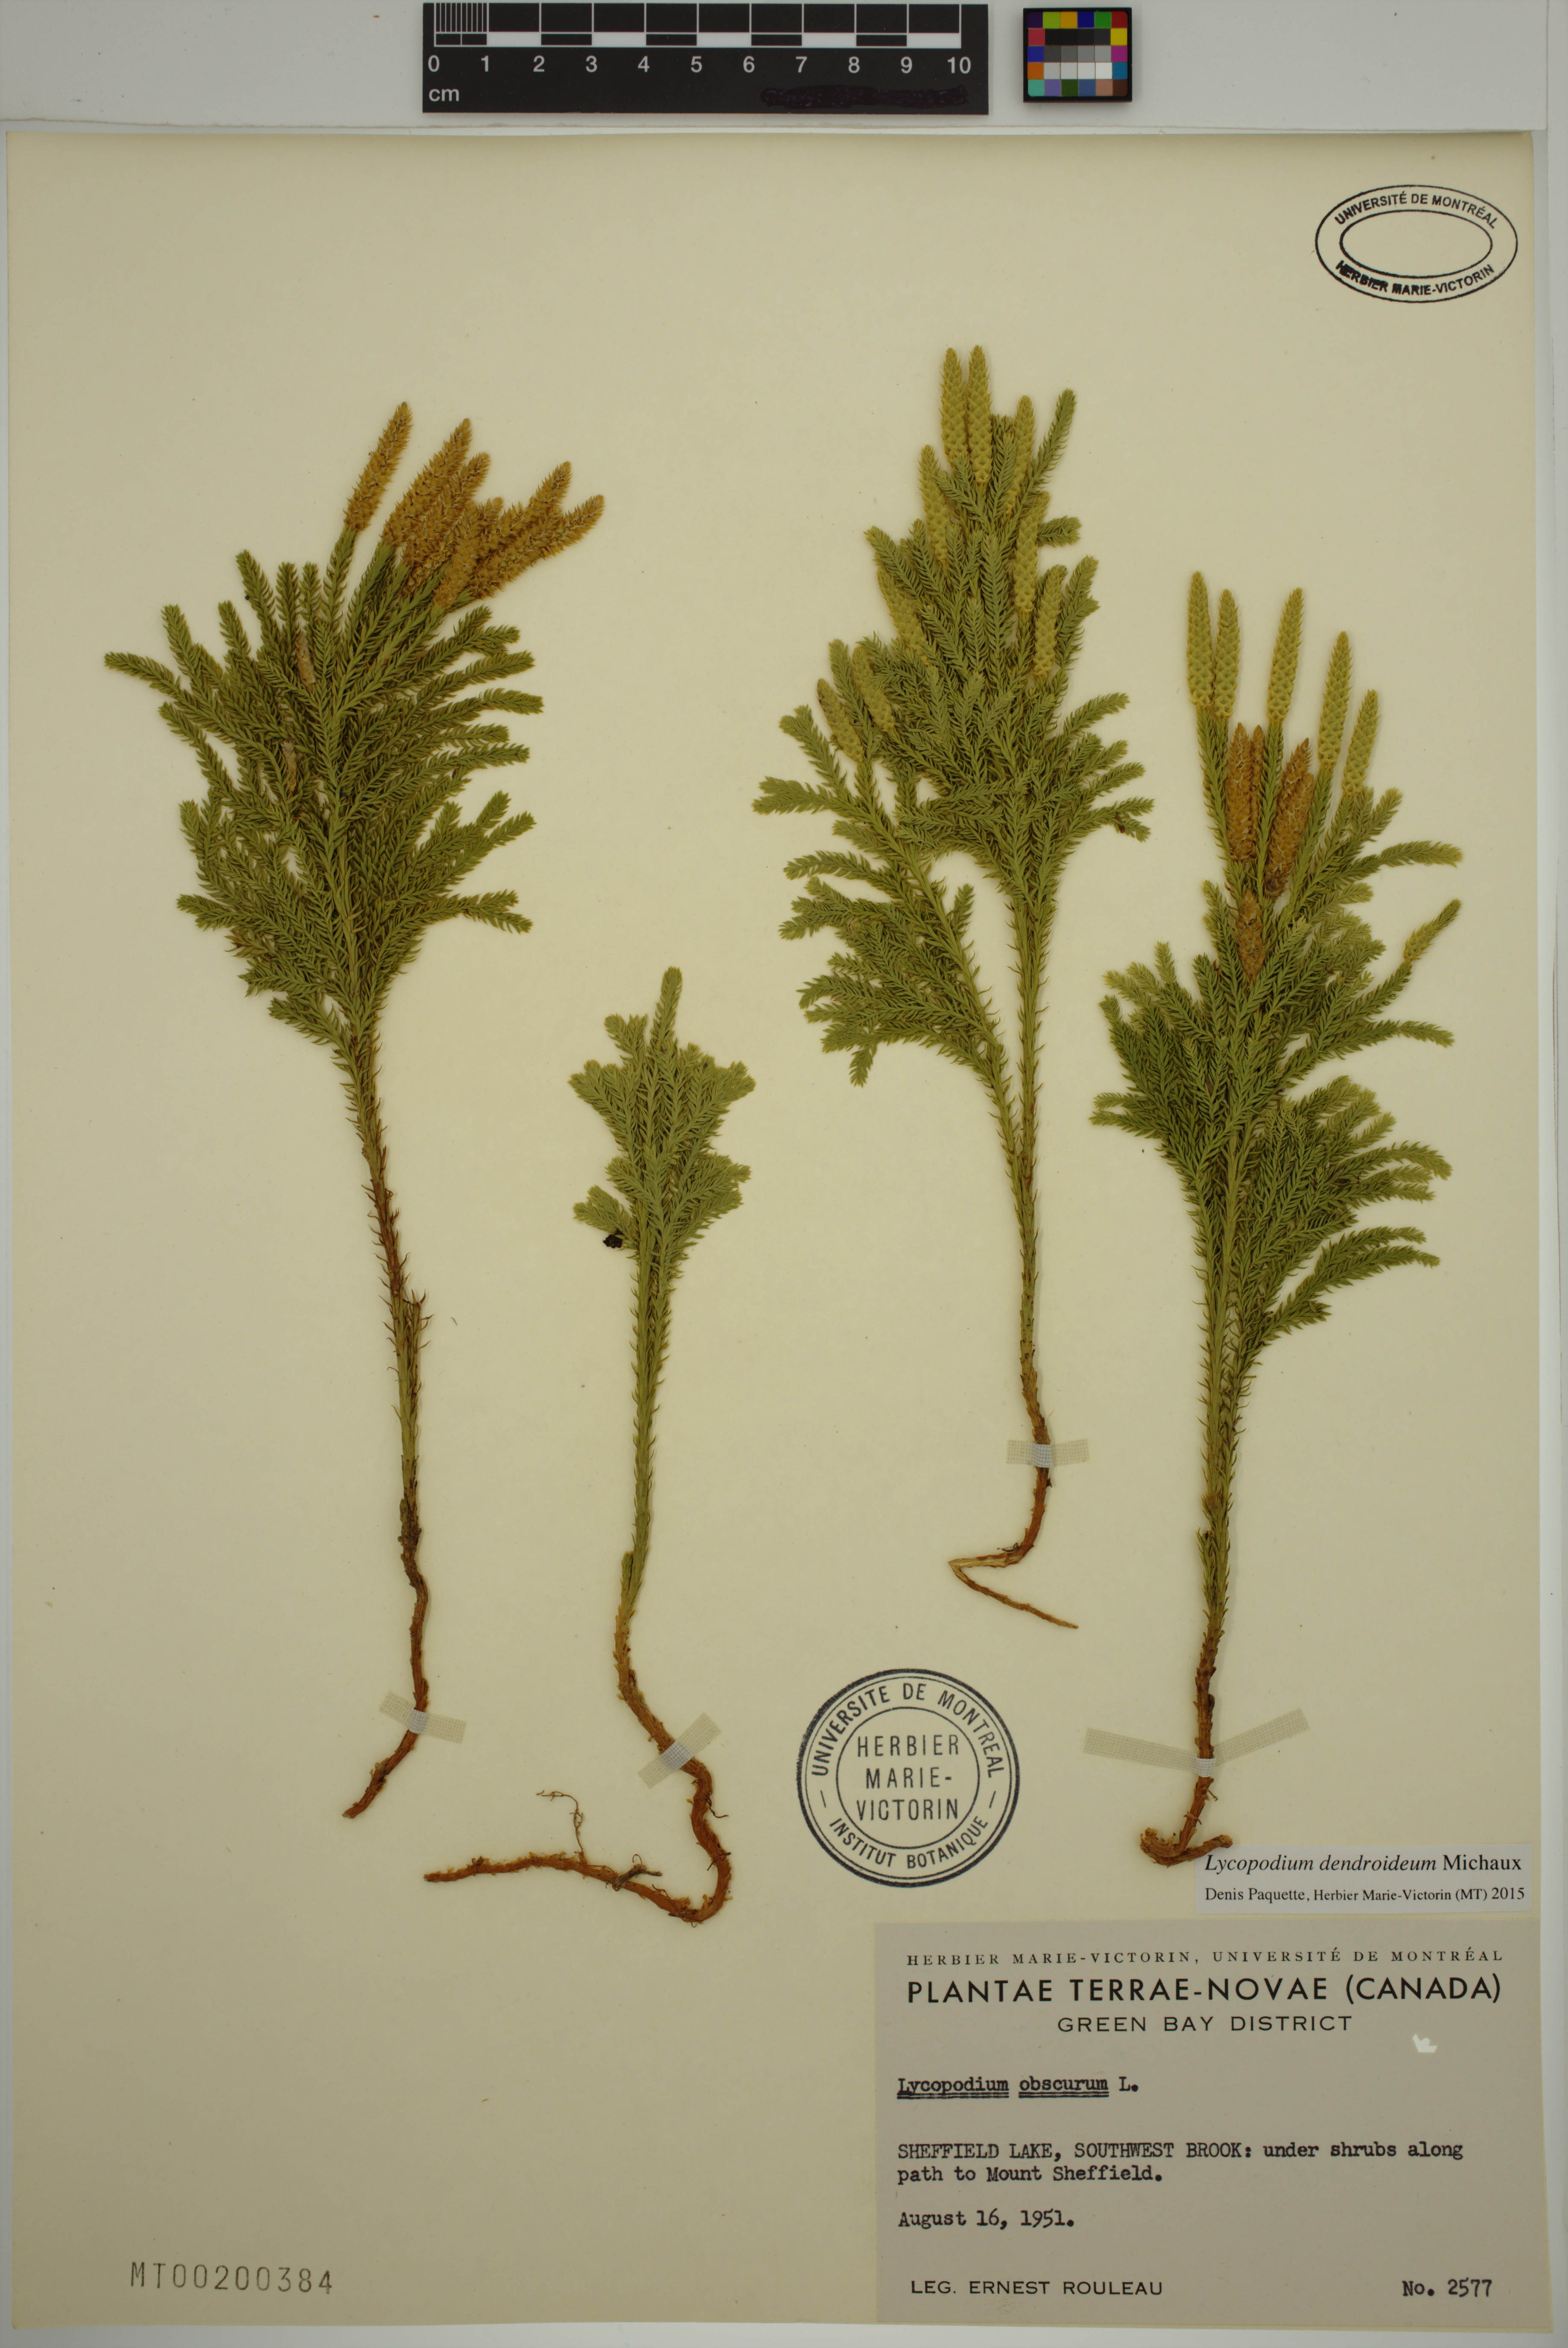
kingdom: Plantae
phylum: Tracheophyta
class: Lycopodiopsida
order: Lycopodiales
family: Lycopodiaceae
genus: Dendrolycopodium
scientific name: Dendrolycopodium dendroideum
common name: Northern tree-clubmoss
